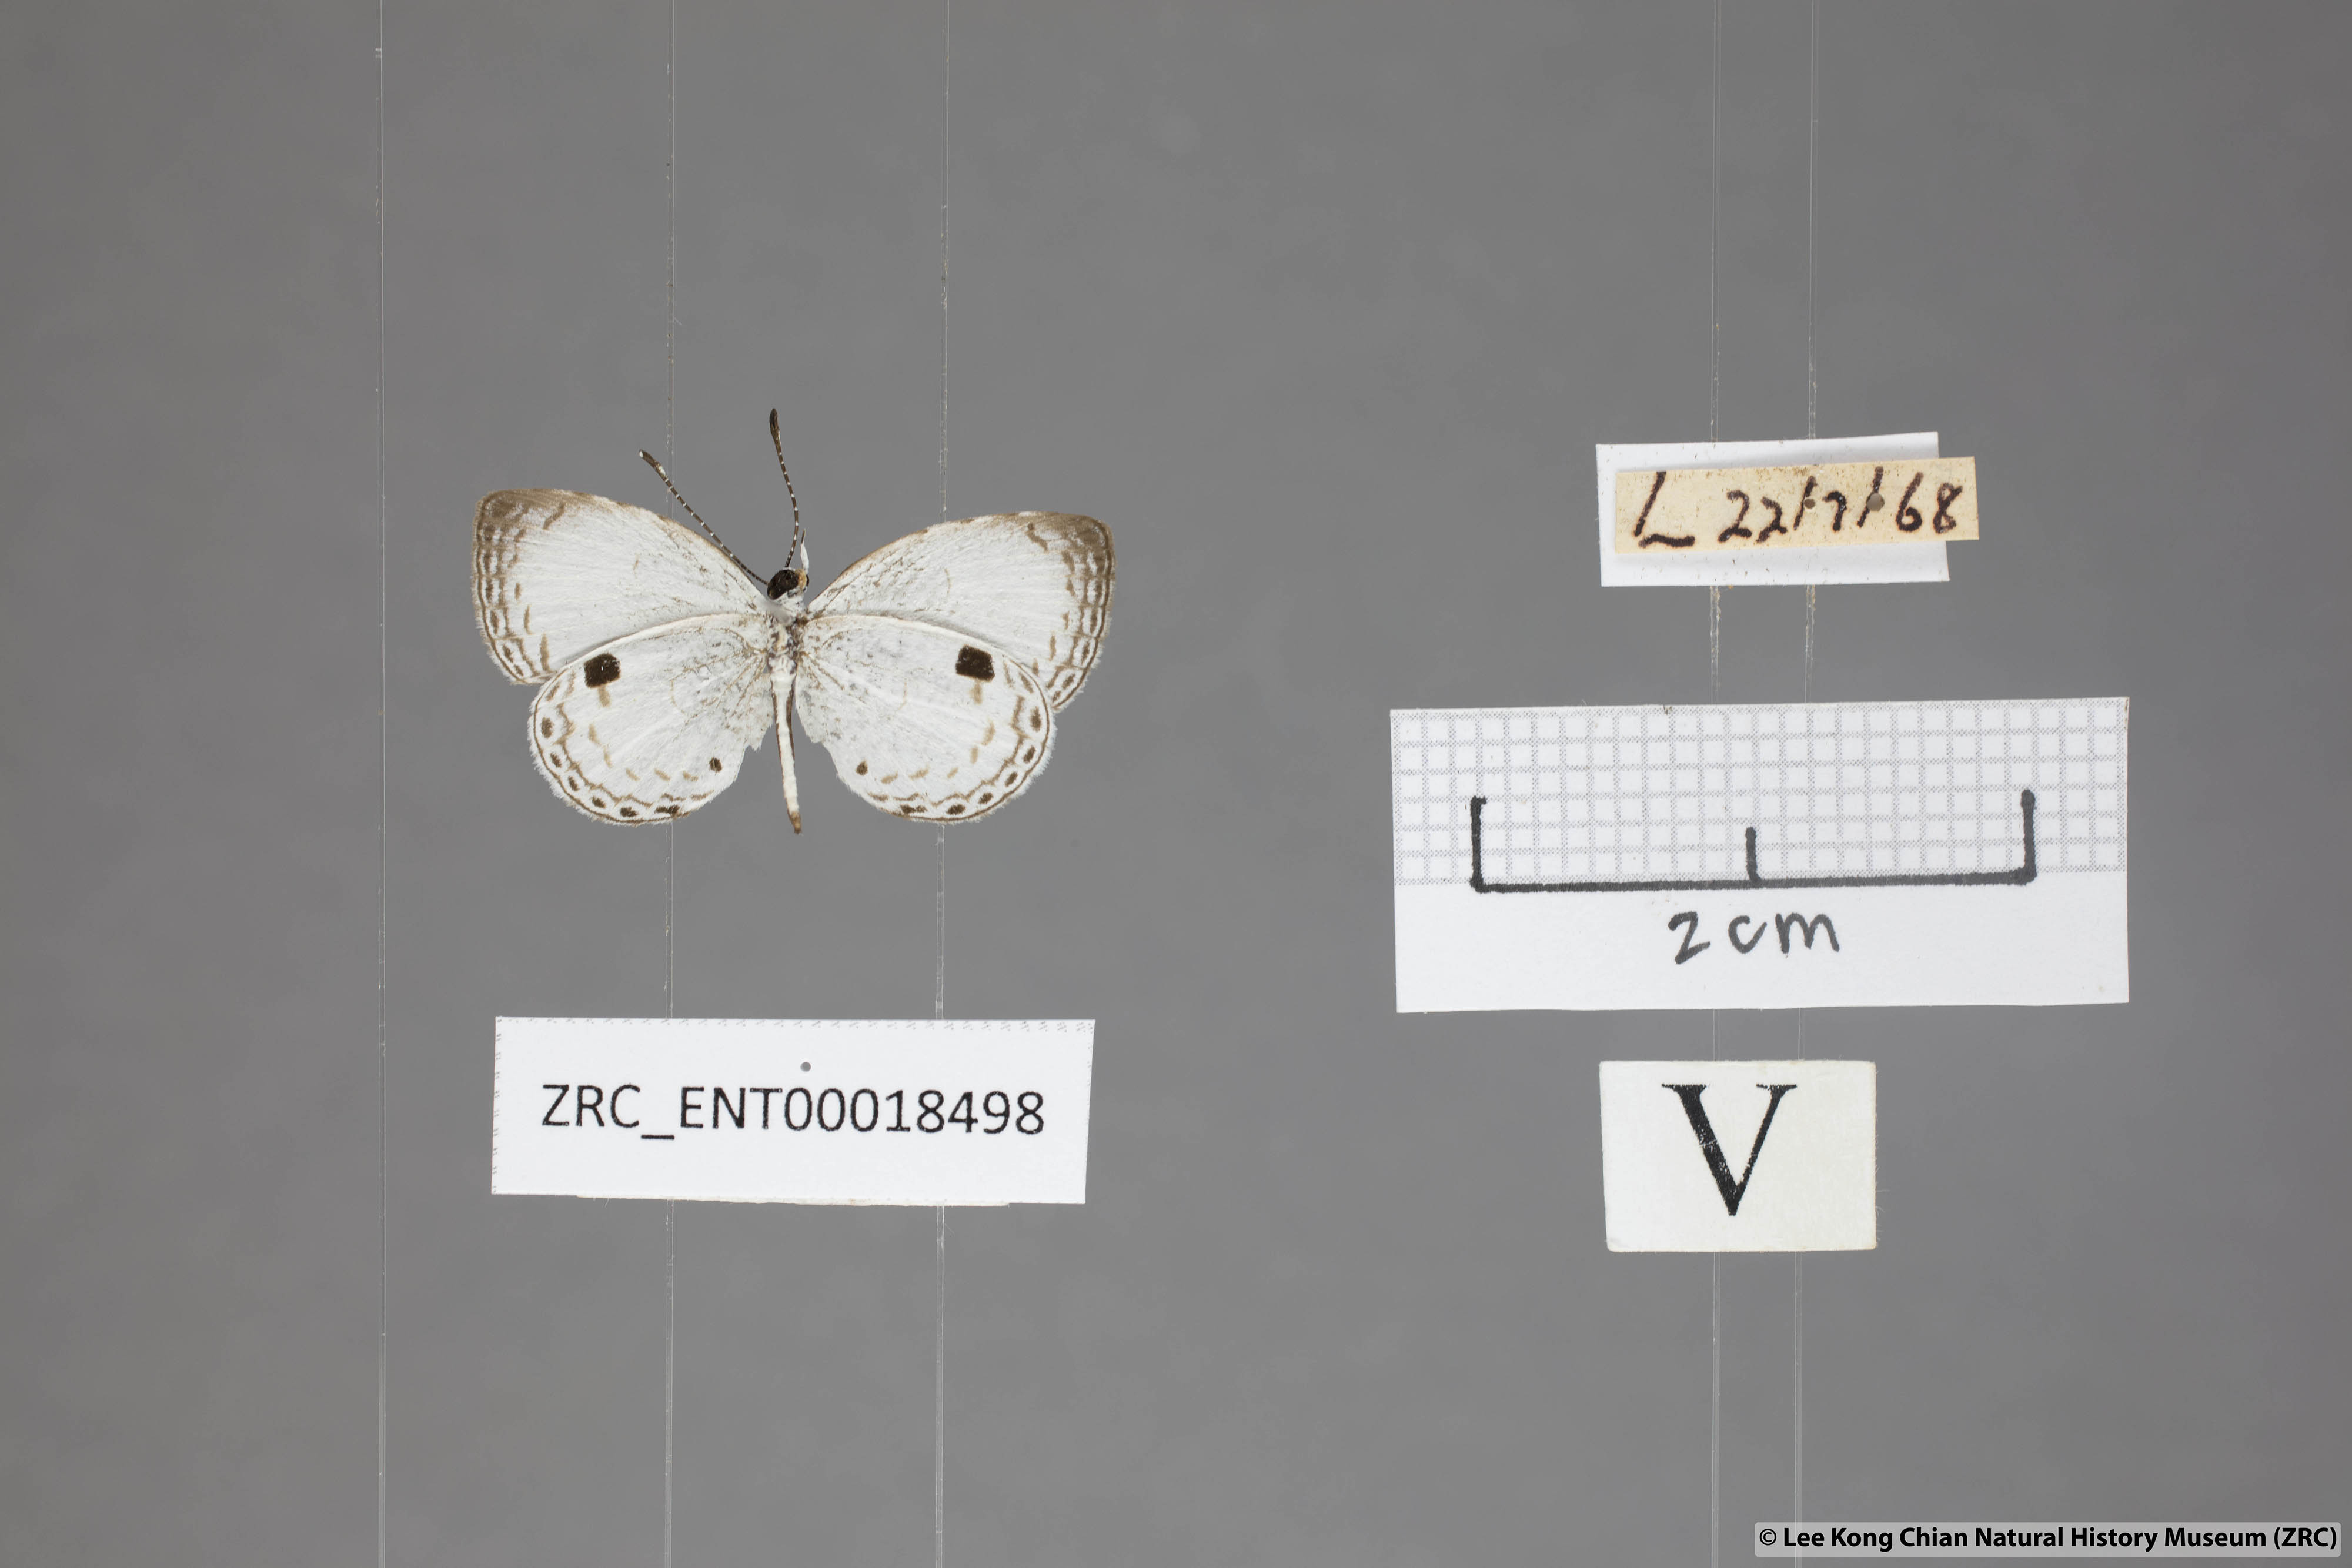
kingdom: Animalia
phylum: Arthropoda
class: Insecta
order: Lepidoptera
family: Lycaenidae
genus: Neopithecops
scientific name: Neopithecops zalmora
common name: Quaker
